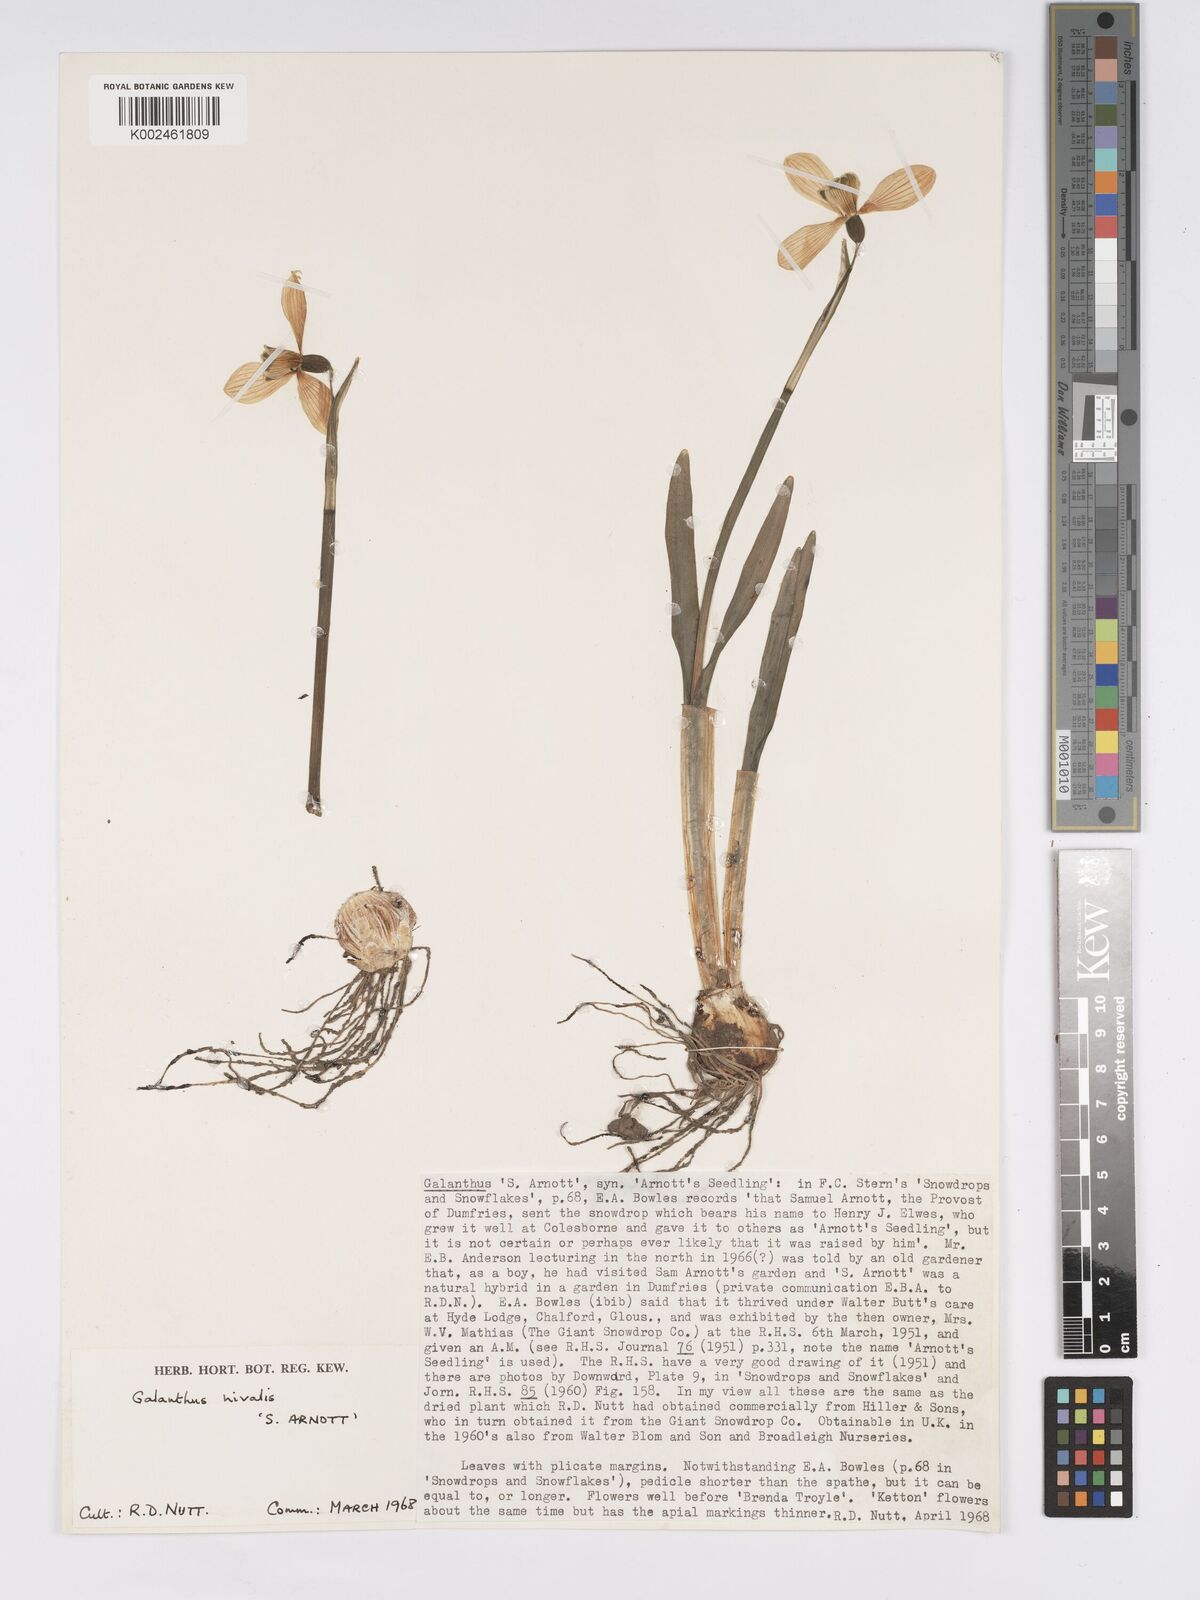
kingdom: Plantae
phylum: Tracheophyta
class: Liliopsida
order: Asparagales
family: Amaryllidaceae
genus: Galanthus
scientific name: Galanthus
